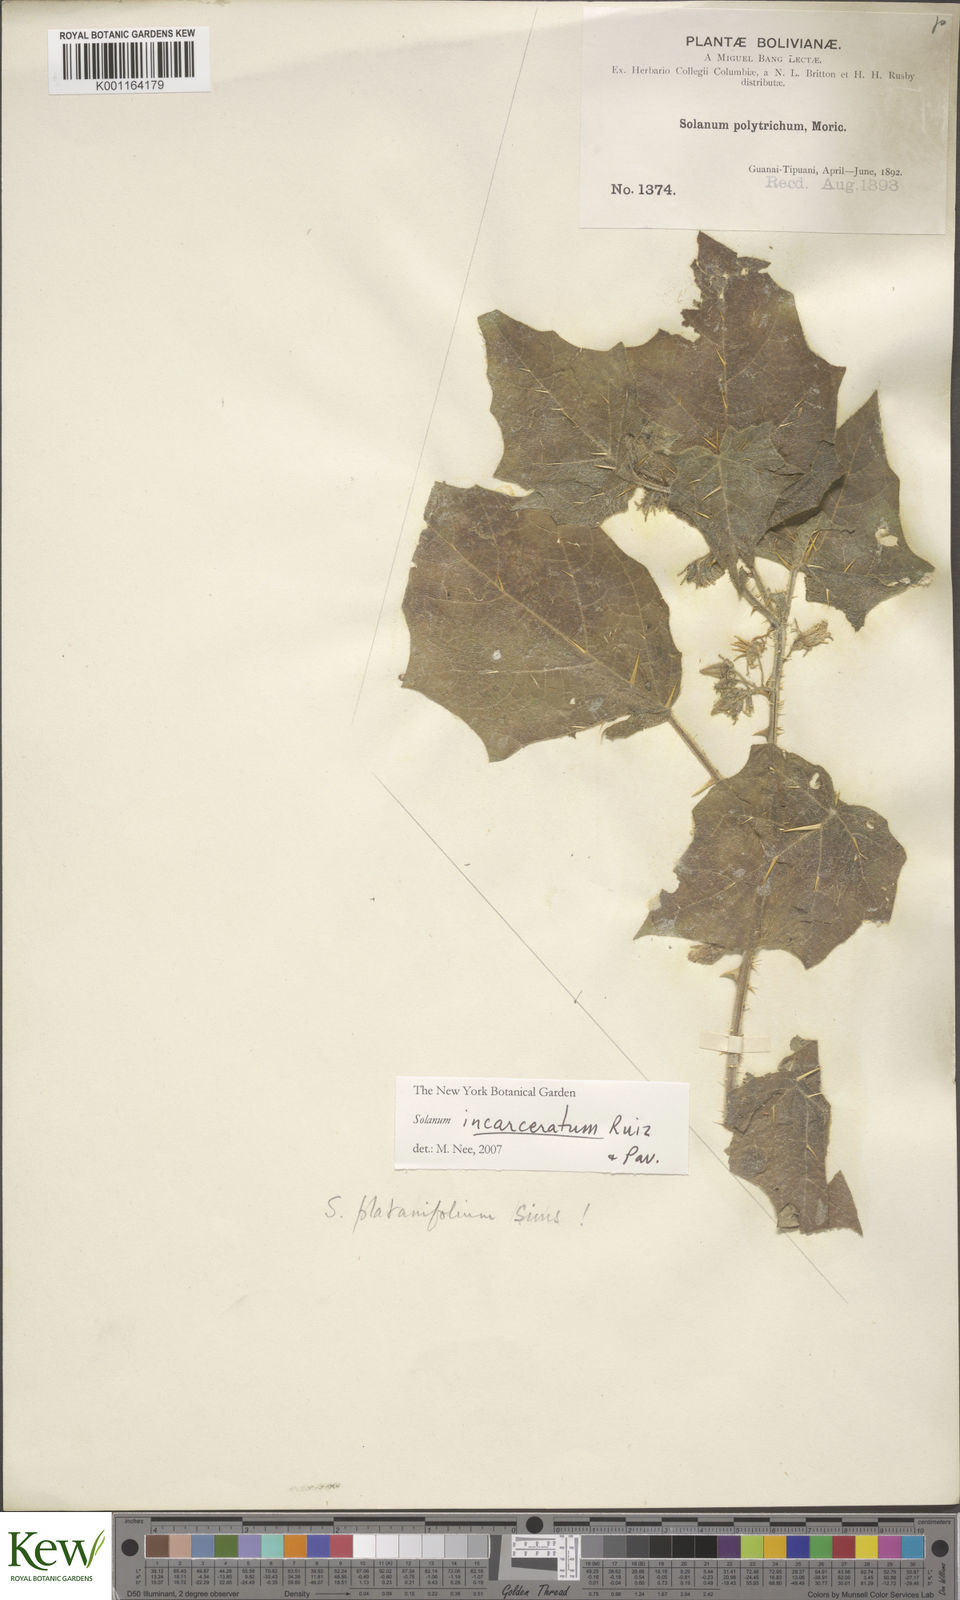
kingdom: Plantae
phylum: Tracheophyta
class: Magnoliopsida
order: Solanales
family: Solanaceae
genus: Solanum
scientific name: Solanum incarceratum
